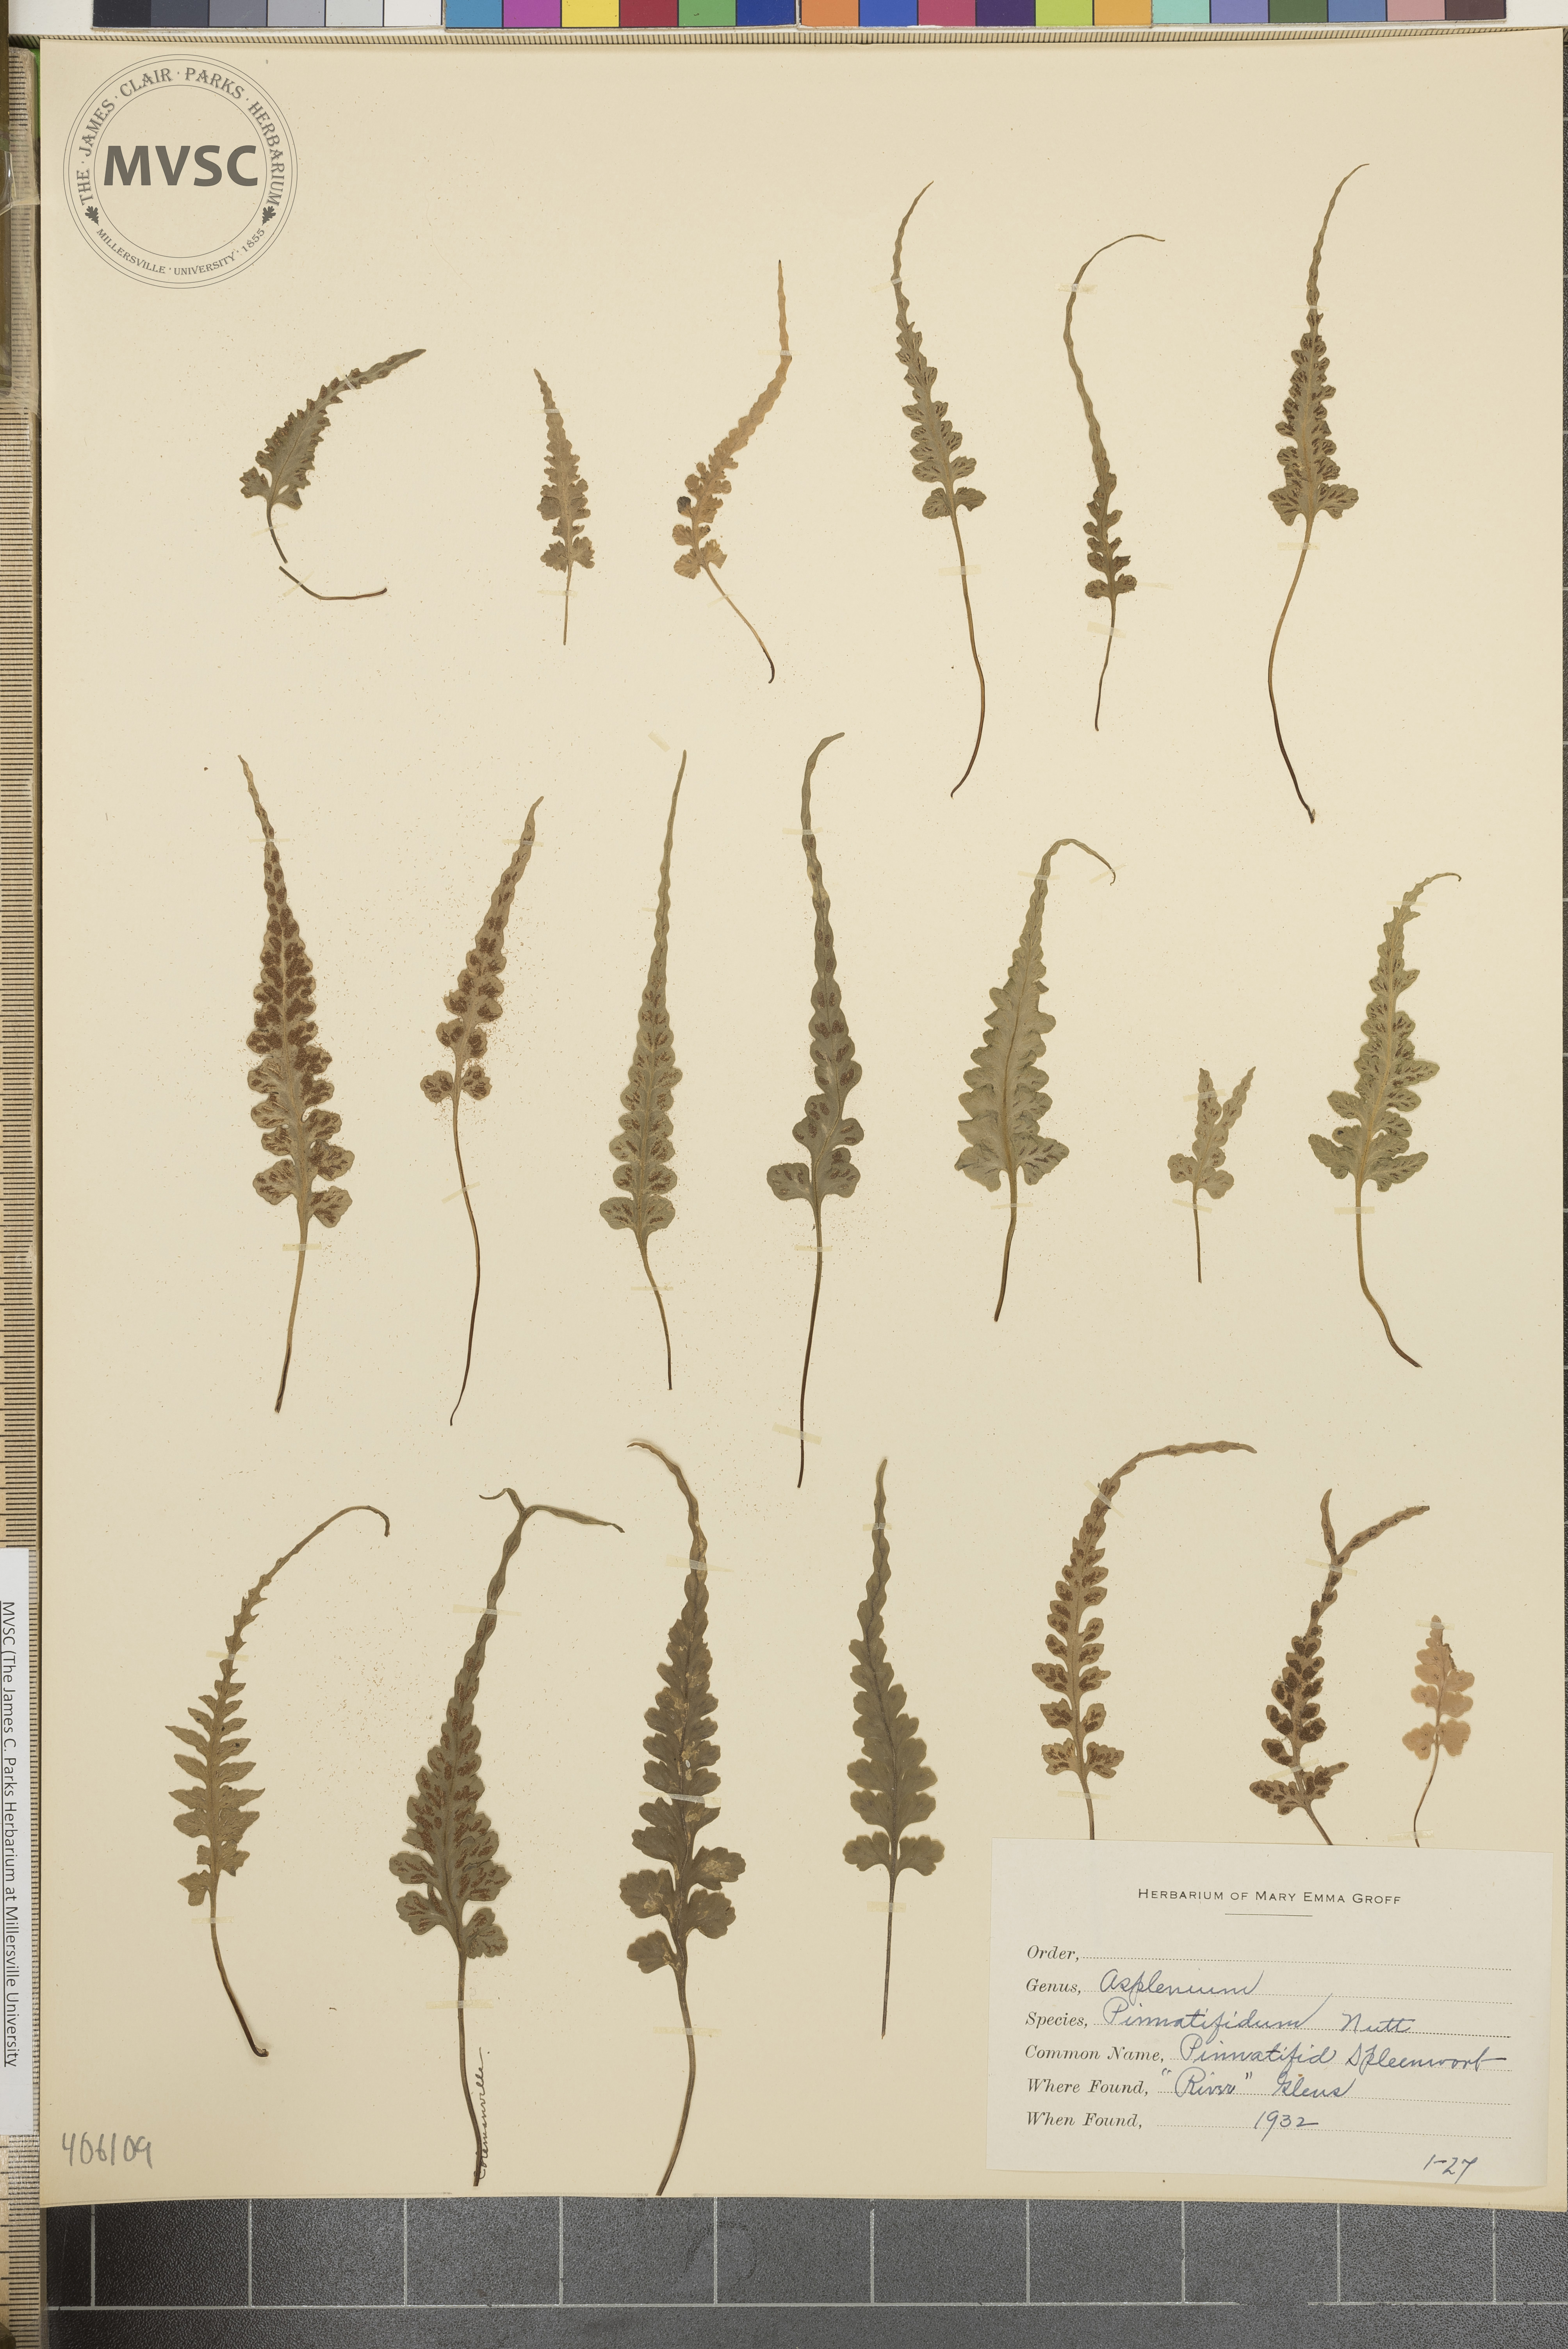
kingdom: Plantae
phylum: Tracheophyta
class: Polypodiopsida
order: Polypodiales
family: Aspleniaceae
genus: Asplenium
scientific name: Asplenium pinnatifidum
